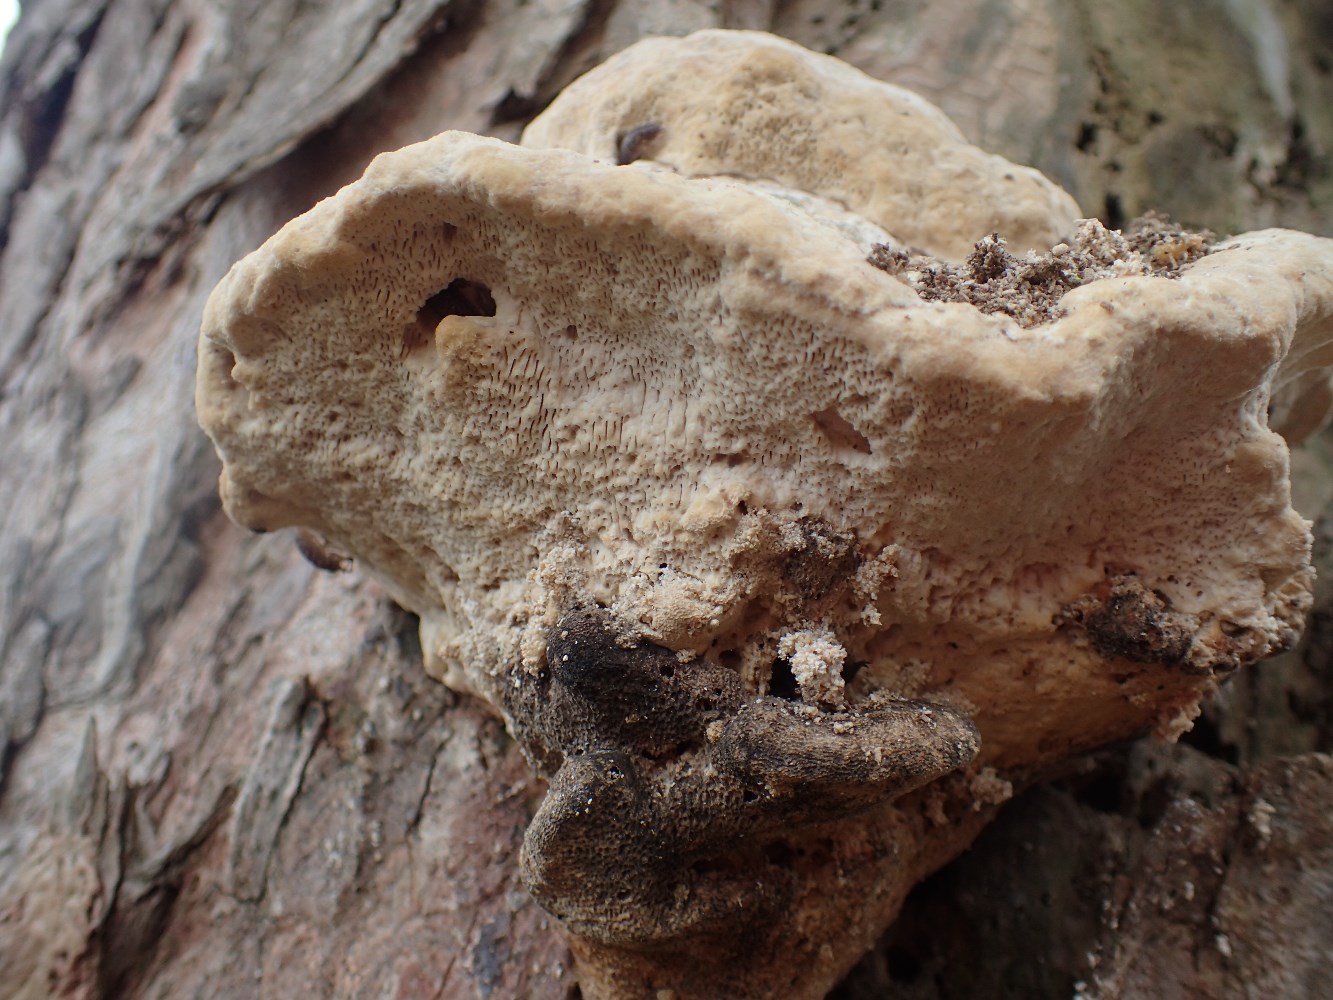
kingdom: Fungi
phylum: Basidiomycota
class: Agaricomycetes
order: Polyporales
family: Polyporaceae
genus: Trametes
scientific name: Trametes gibbosa
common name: puklet læderporesvamp
